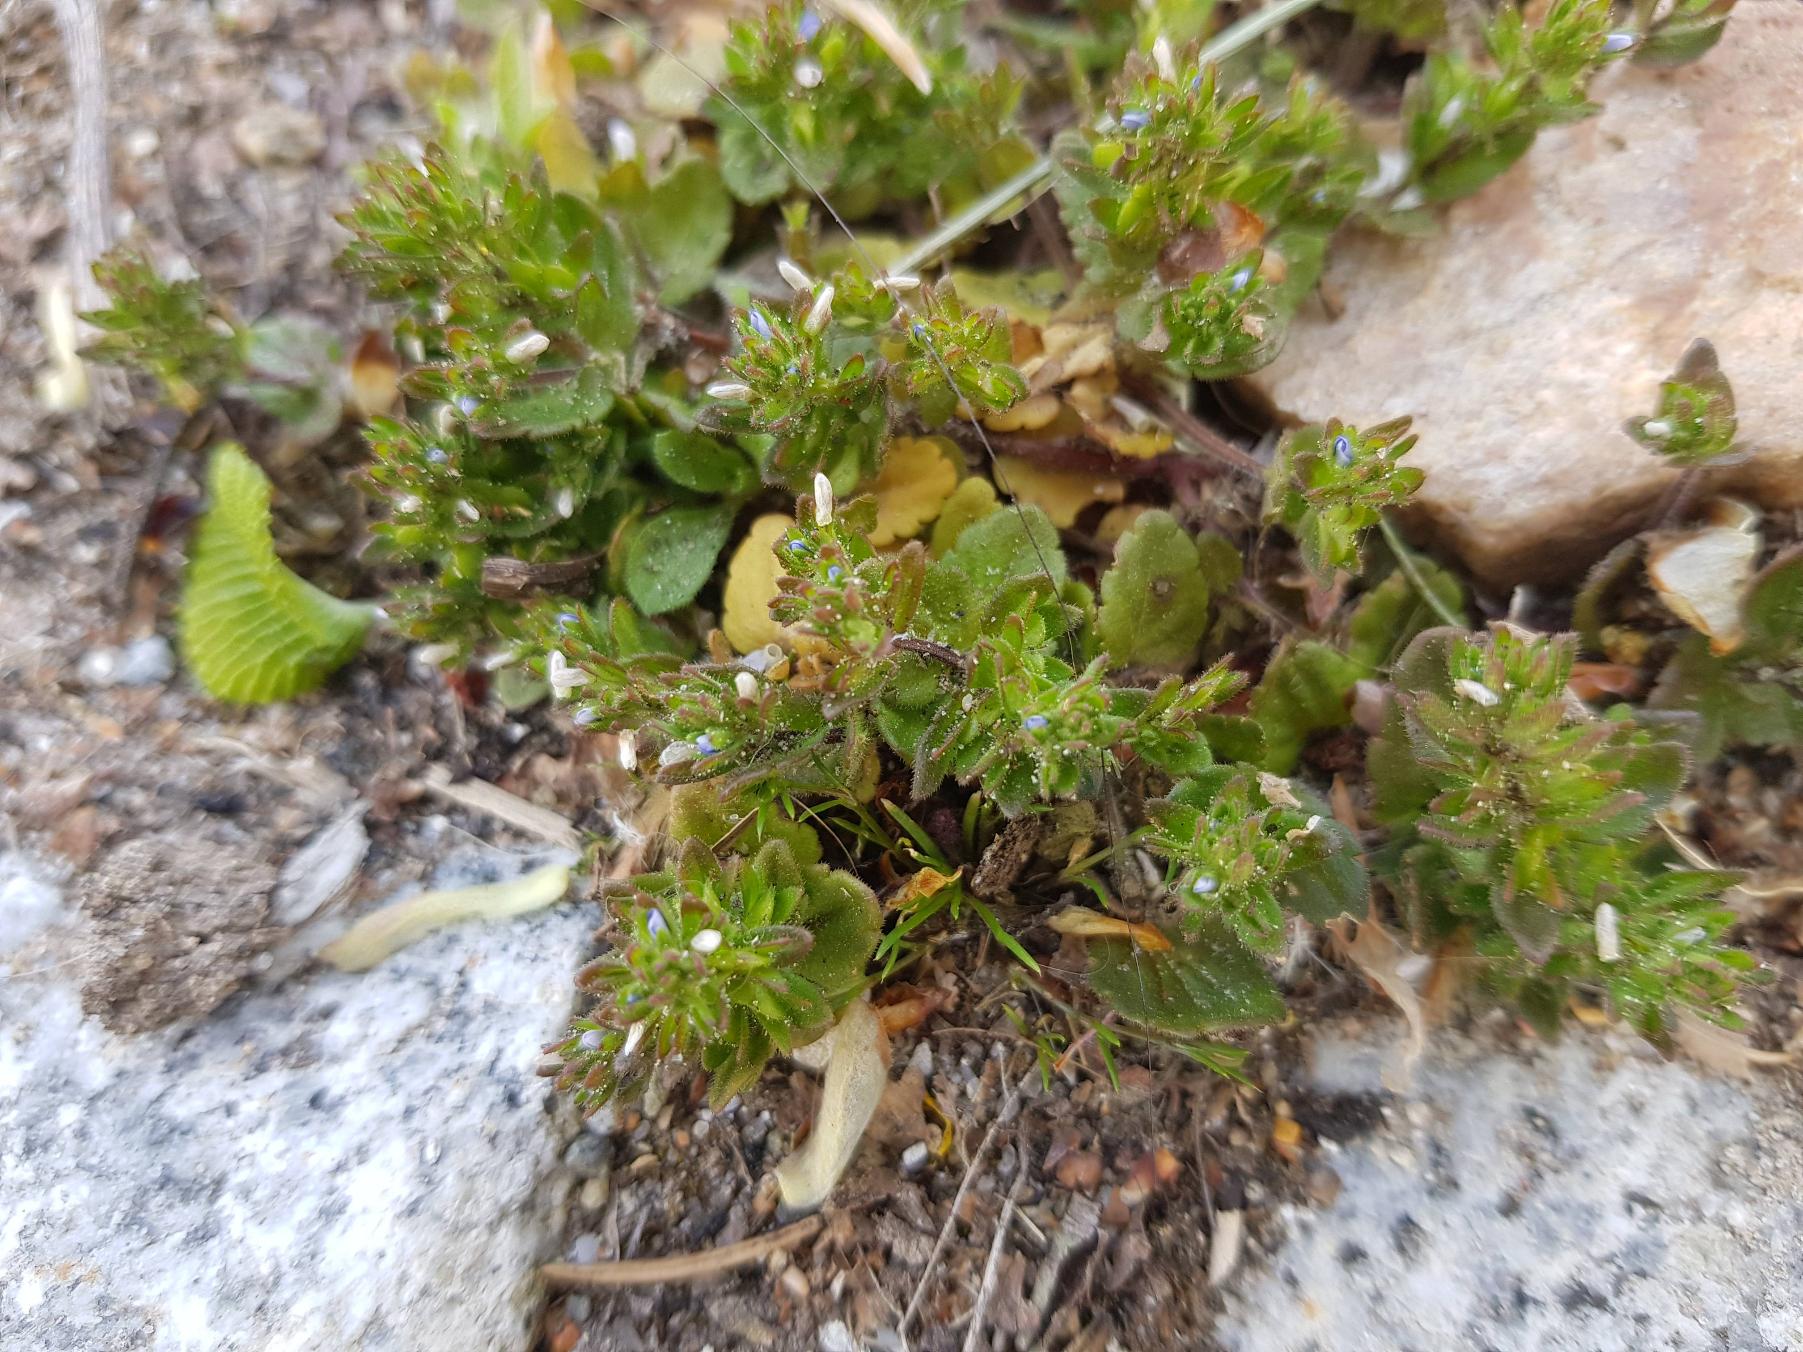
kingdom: Plantae
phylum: Tracheophyta
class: Magnoliopsida
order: Lamiales
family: Plantaginaceae
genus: Veronica
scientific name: Veronica arvensis
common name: Mark-ærenpris
